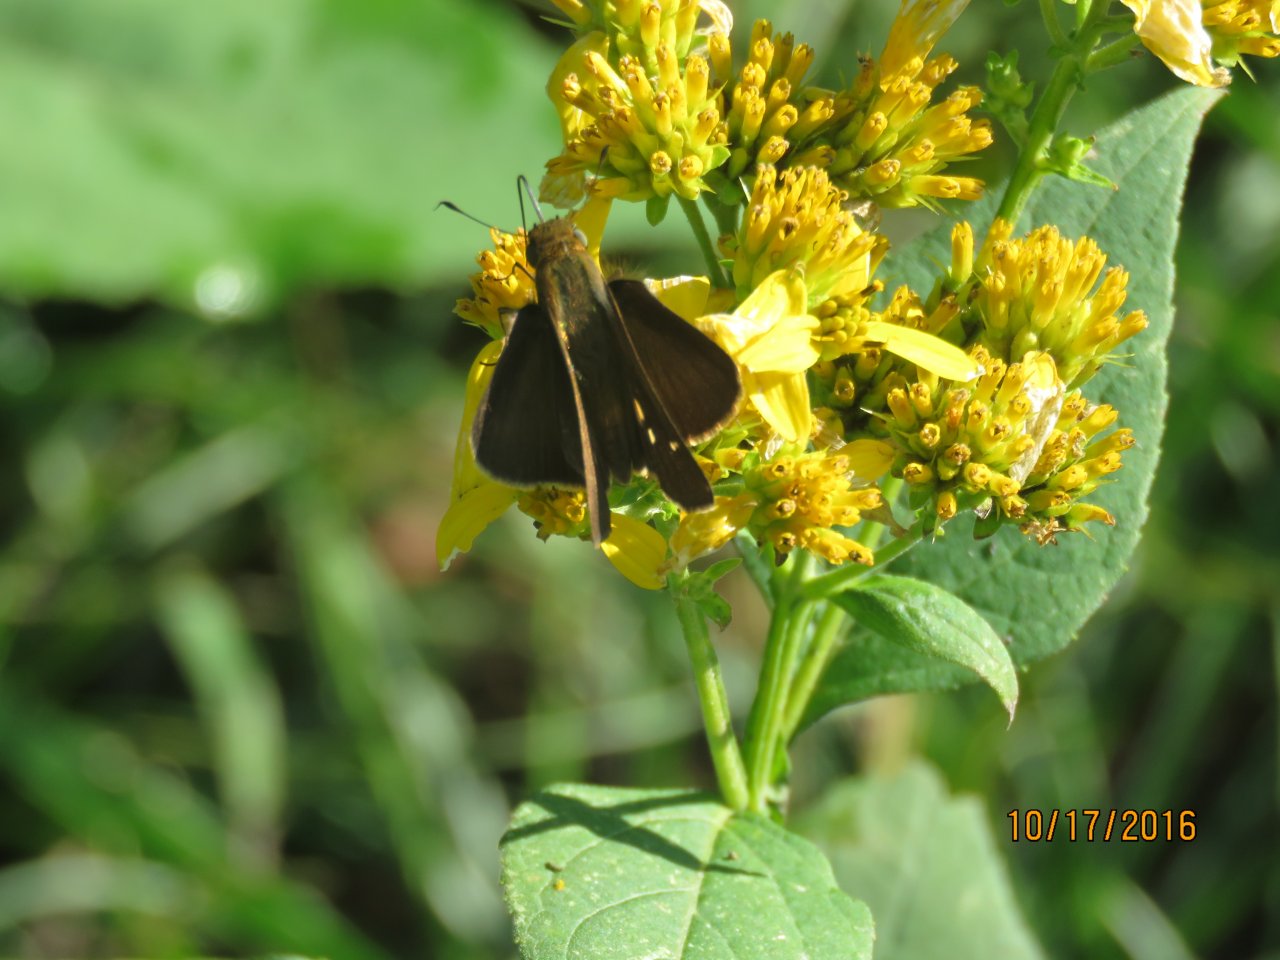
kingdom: Animalia
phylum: Arthropoda
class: Insecta
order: Lepidoptera
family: Hesperiidae
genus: Panoquina
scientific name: Panoquina ocola
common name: Ocola Skipper
